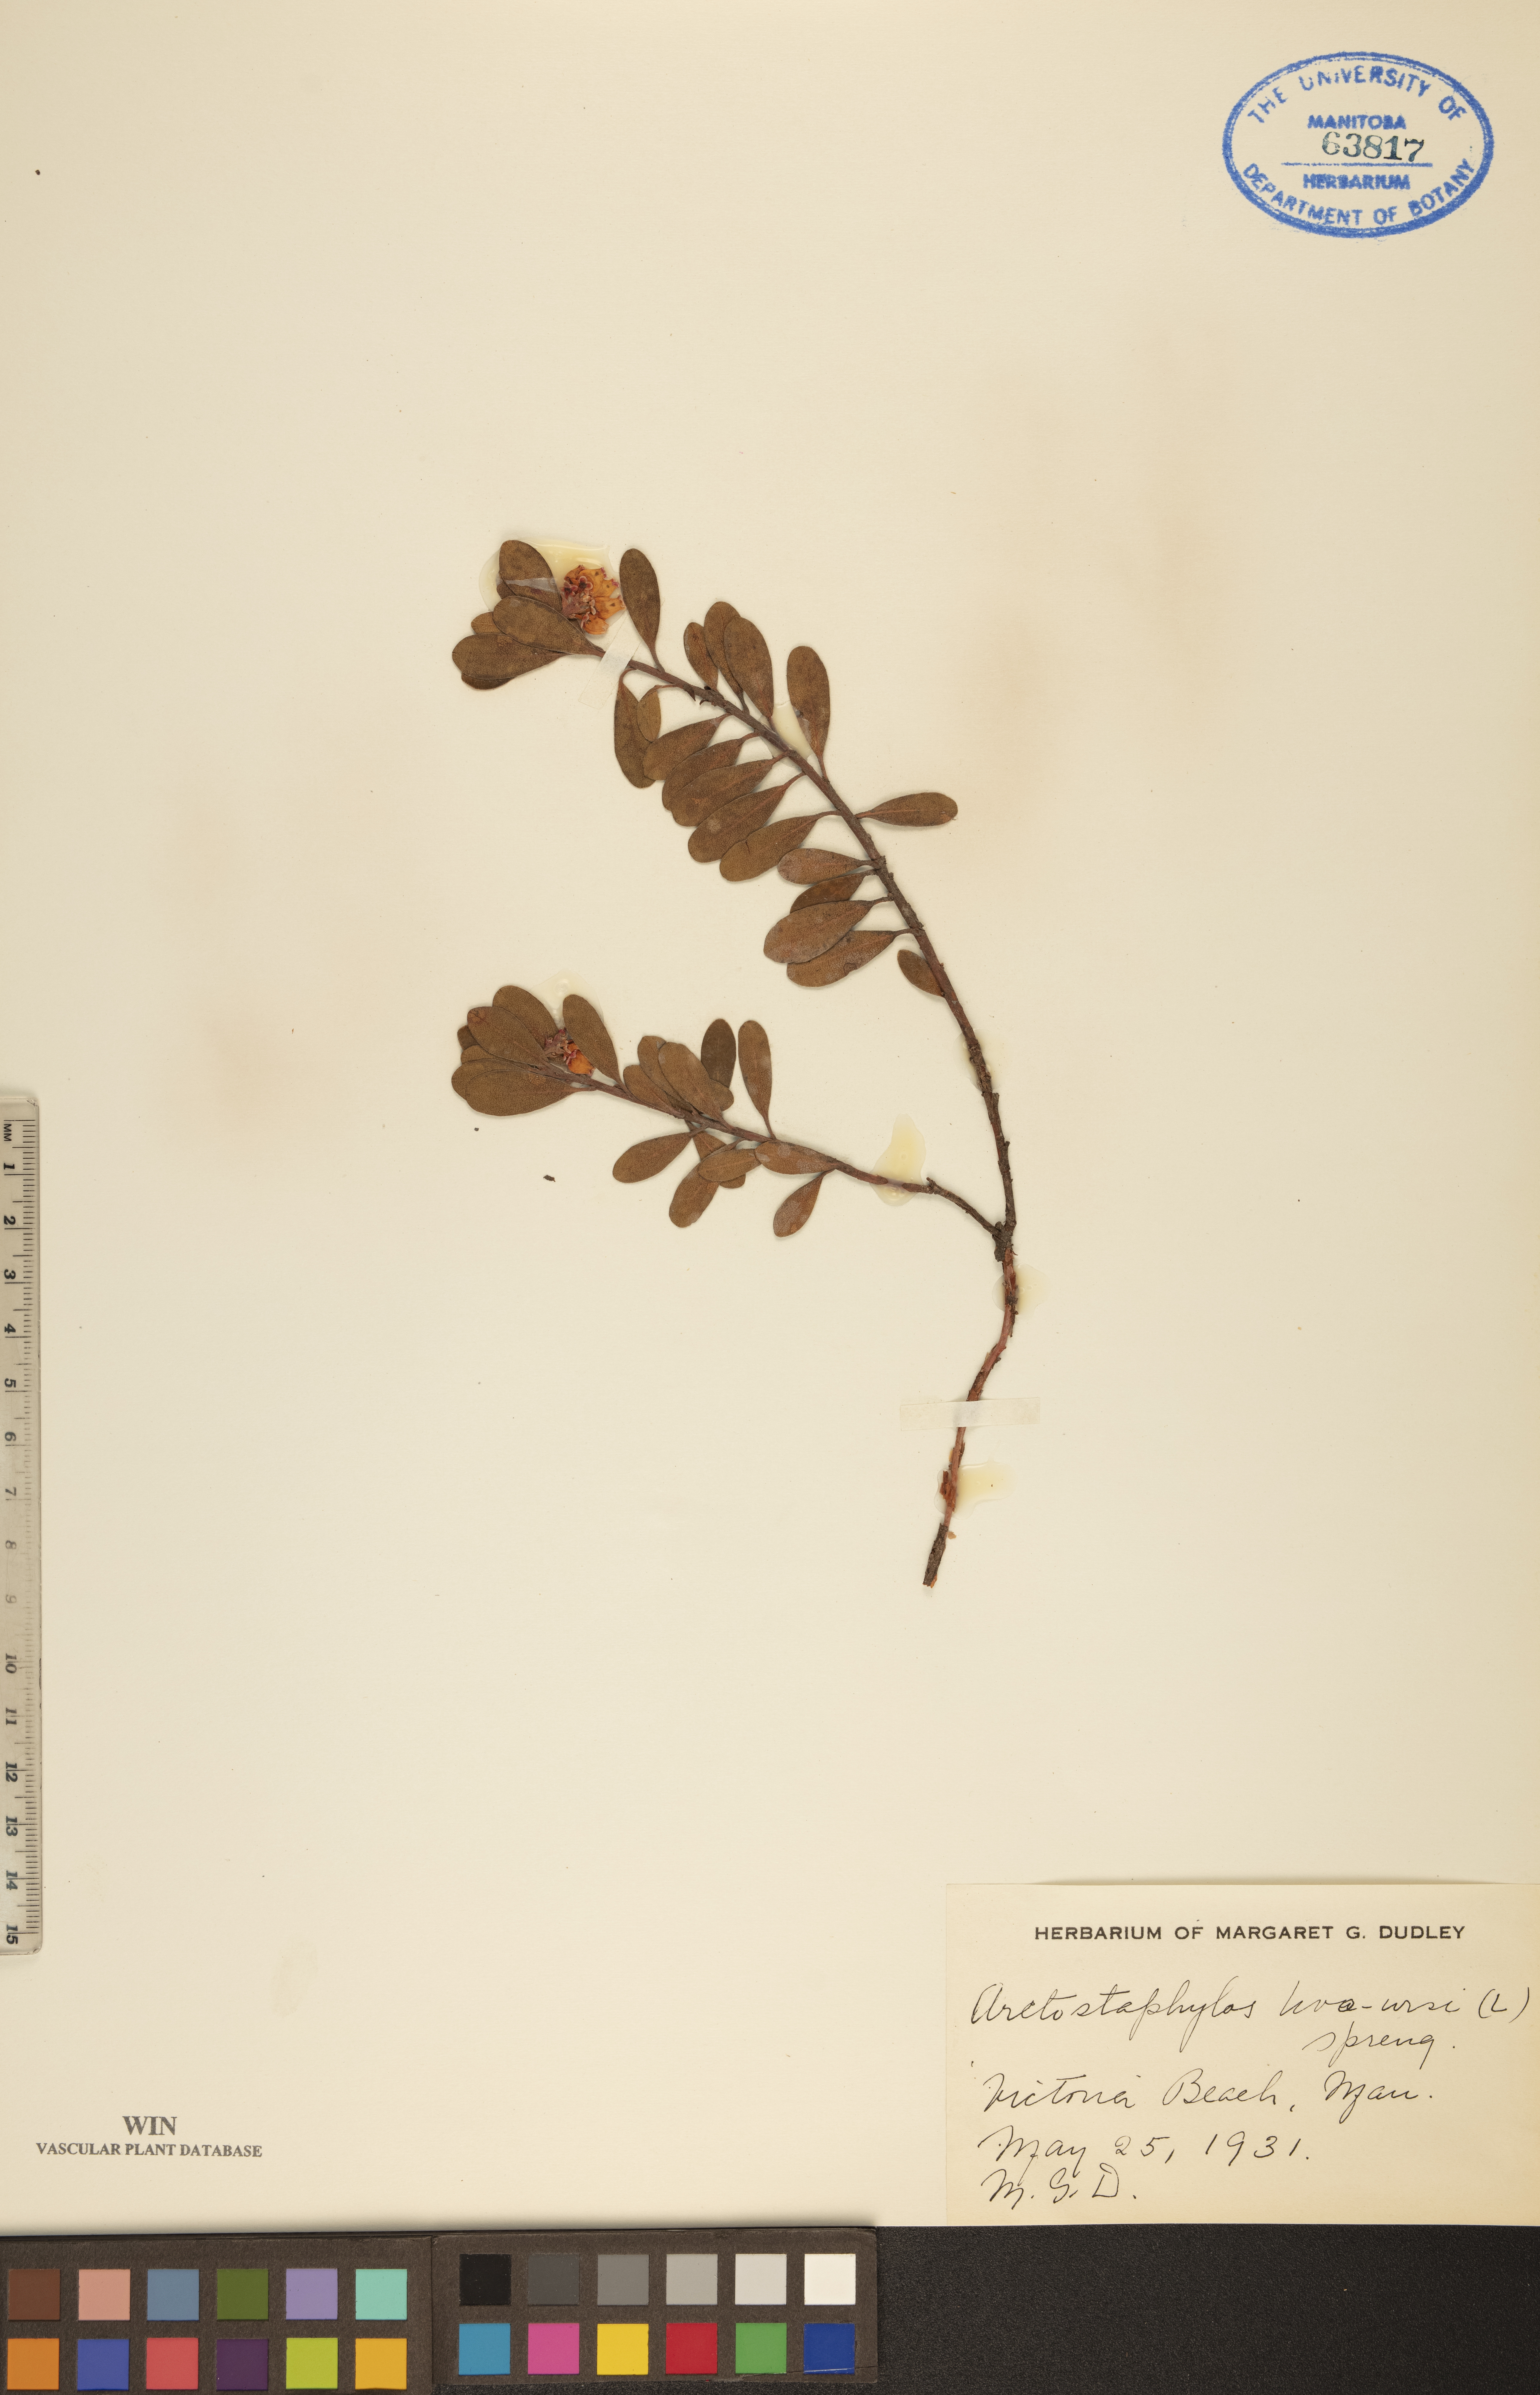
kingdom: Plantae
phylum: Tracheophyta
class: Magnoliopsida
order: Ericales
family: Ericaceae
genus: Arctostaphylos
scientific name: Arctostaphylos uva-ursi
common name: Bearberry
